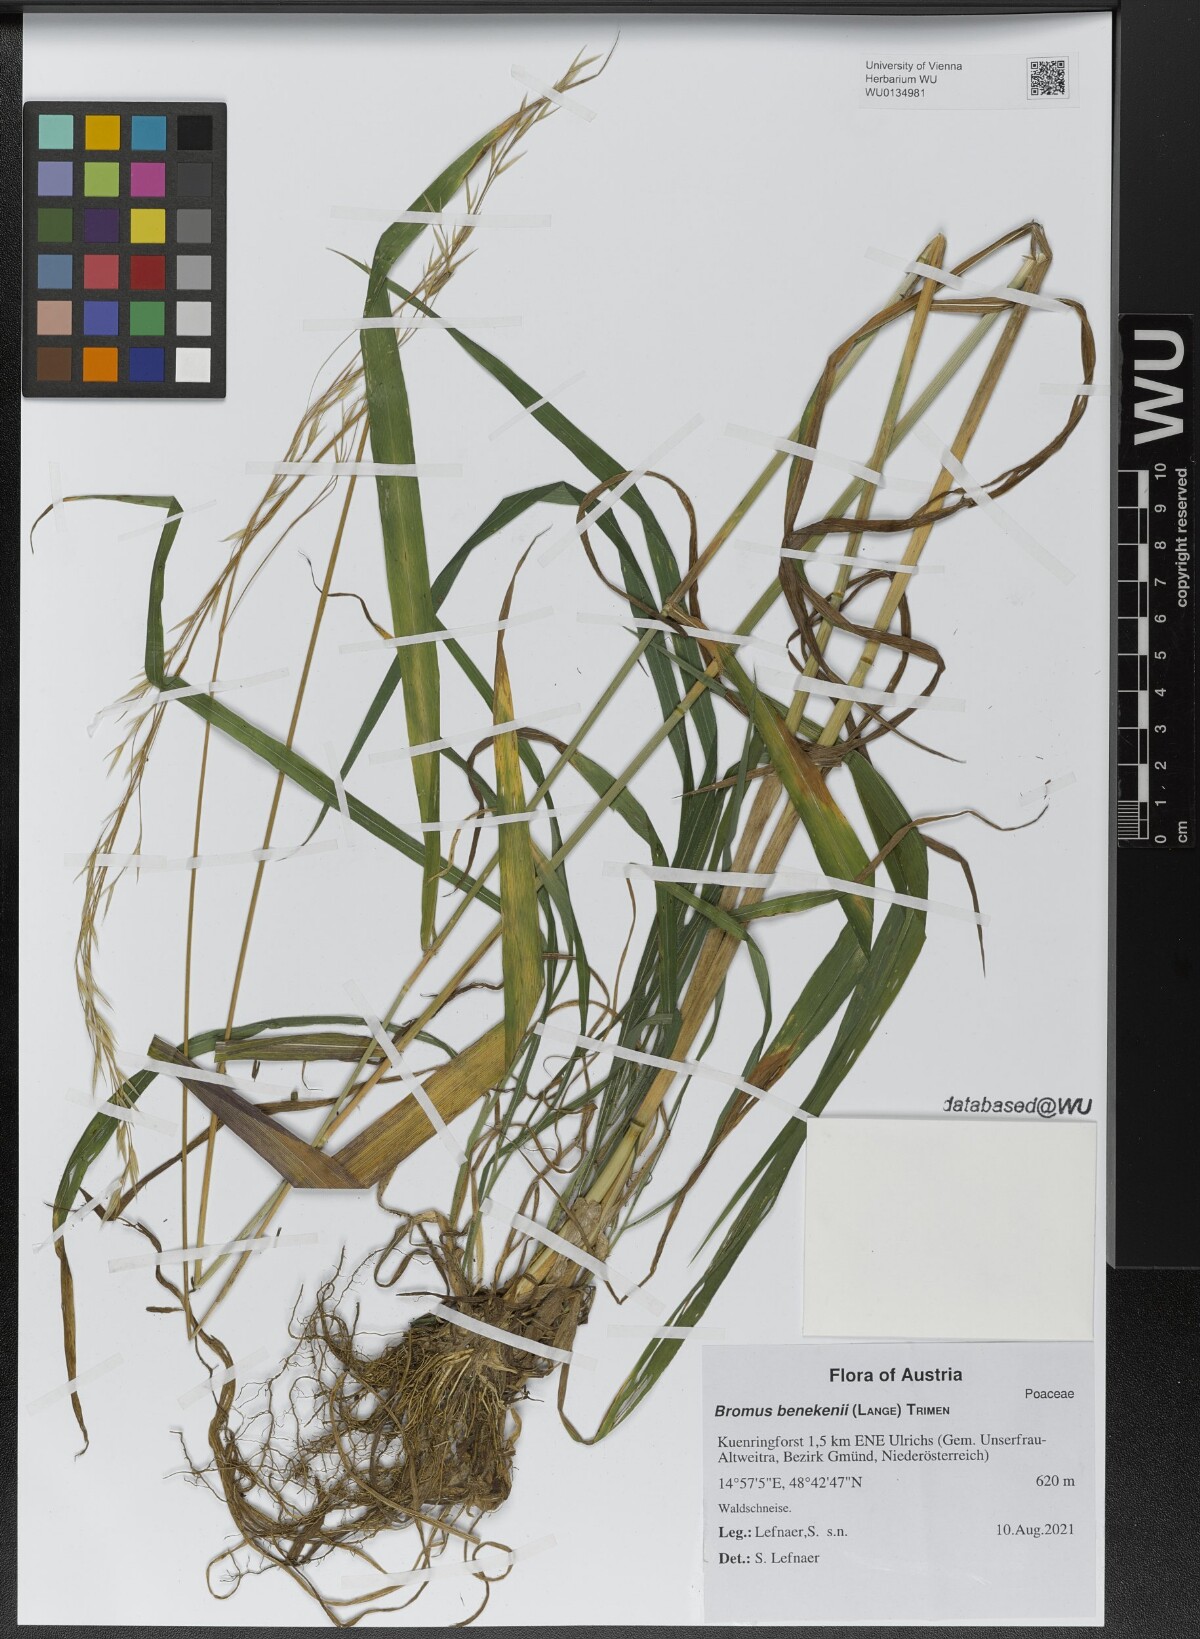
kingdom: Plantae
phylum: Tracheophyta
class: Liliopsida
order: Poales
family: Poaceae
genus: Bromus
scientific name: Bromus benekenii
